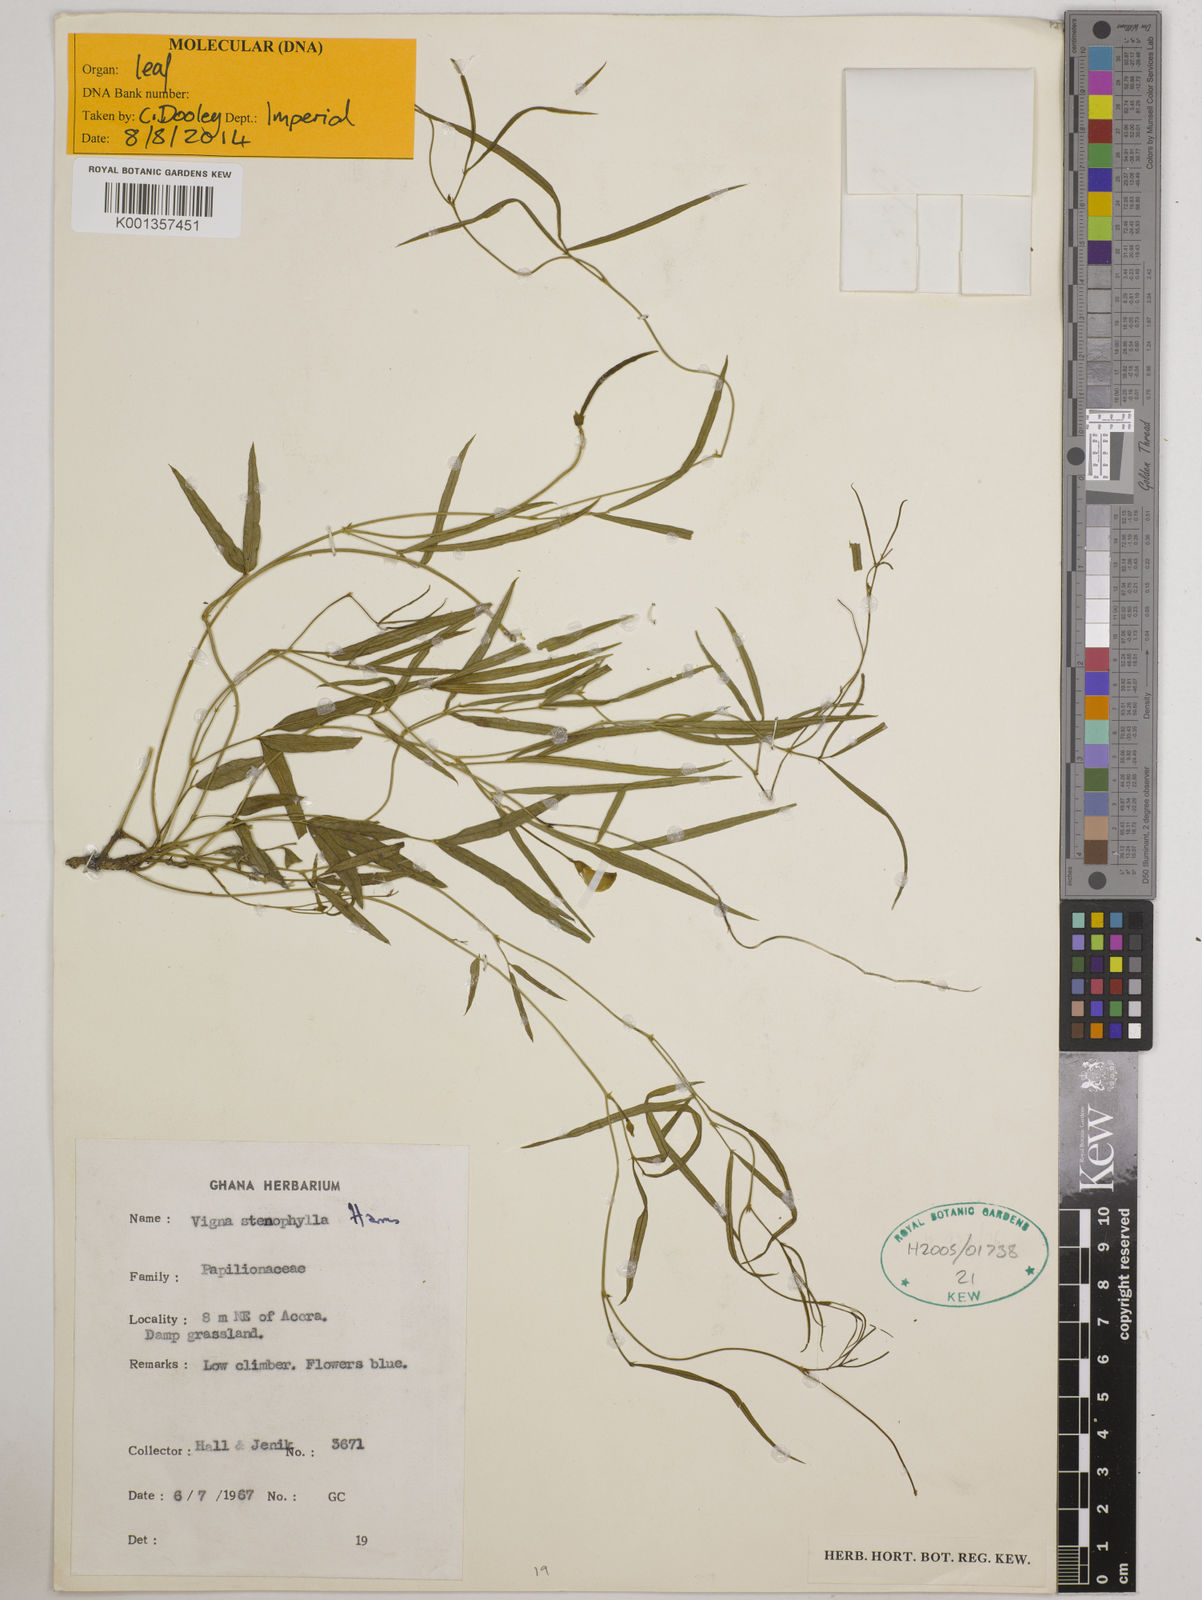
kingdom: Plantae
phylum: Tracheophyta
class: Magnoliopsida
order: Fabales
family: Fabaceae
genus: Vigna
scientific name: Vigna
